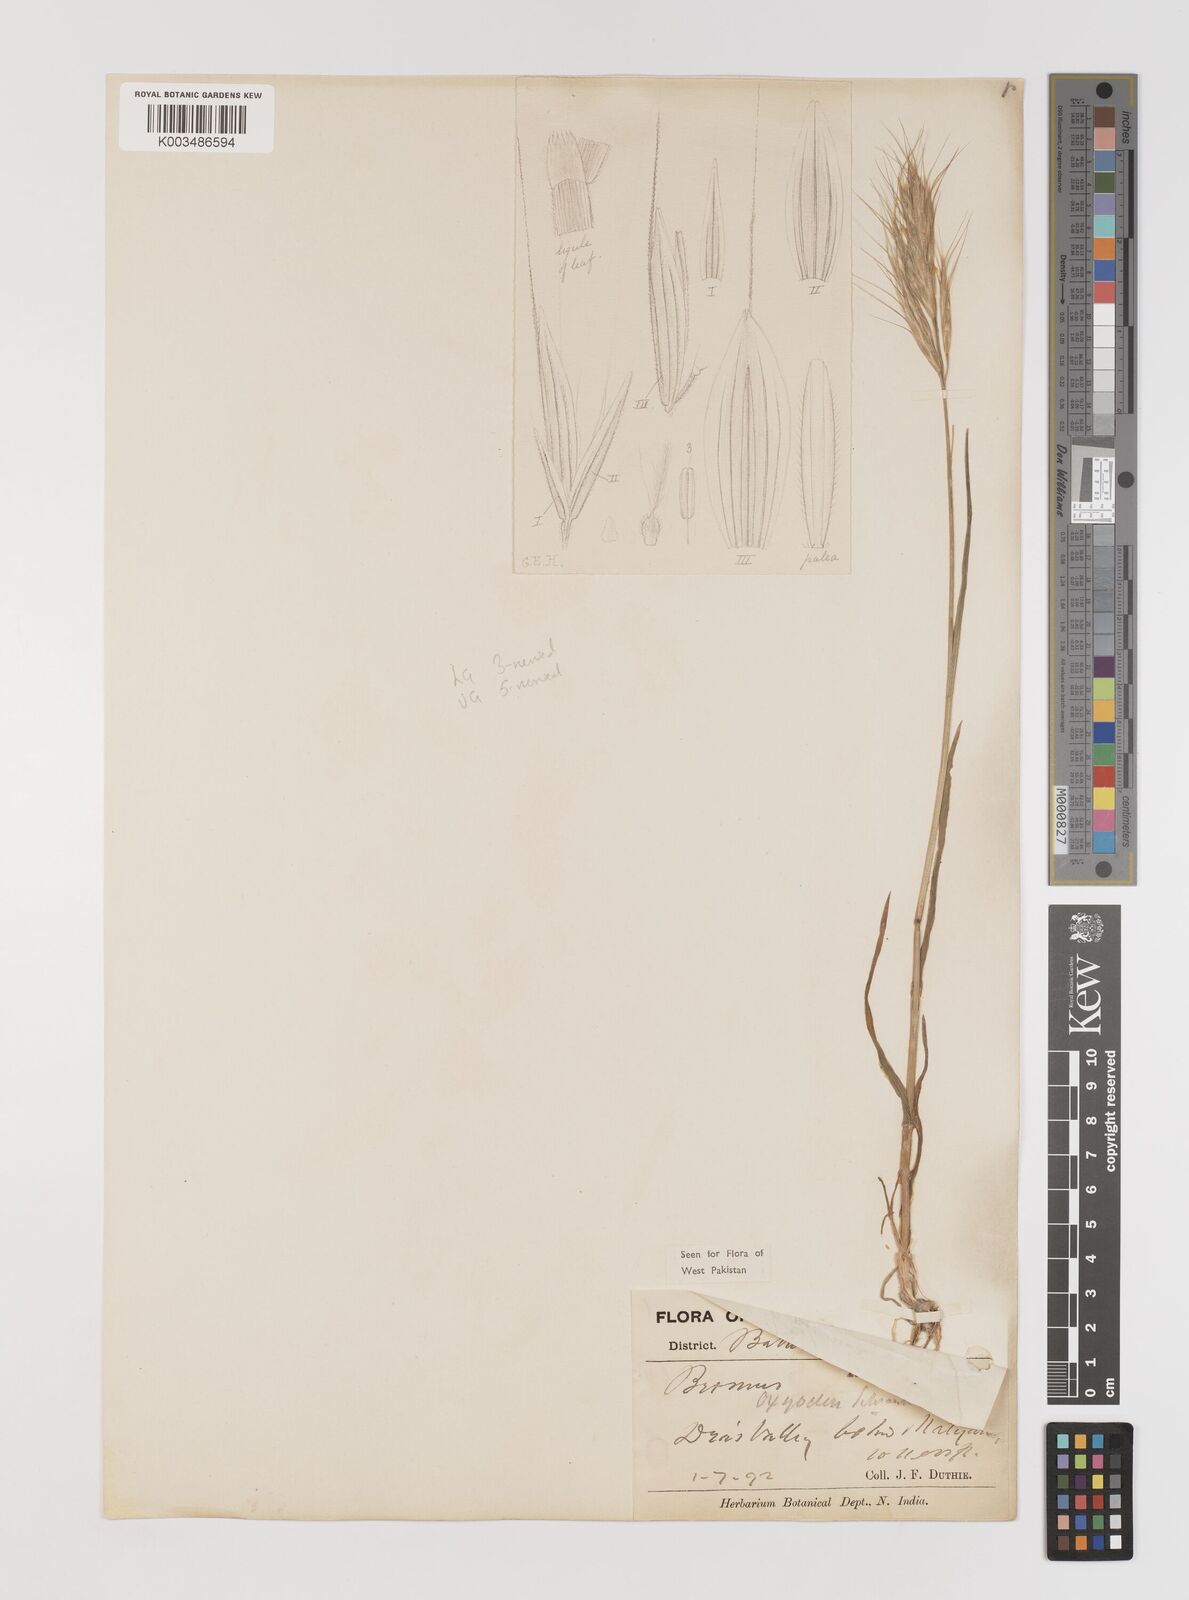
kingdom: Plantae
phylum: Tracheophyta
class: Liliopsida
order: Poales
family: Poaceae
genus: Bromus
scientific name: Bromus oxyodon
